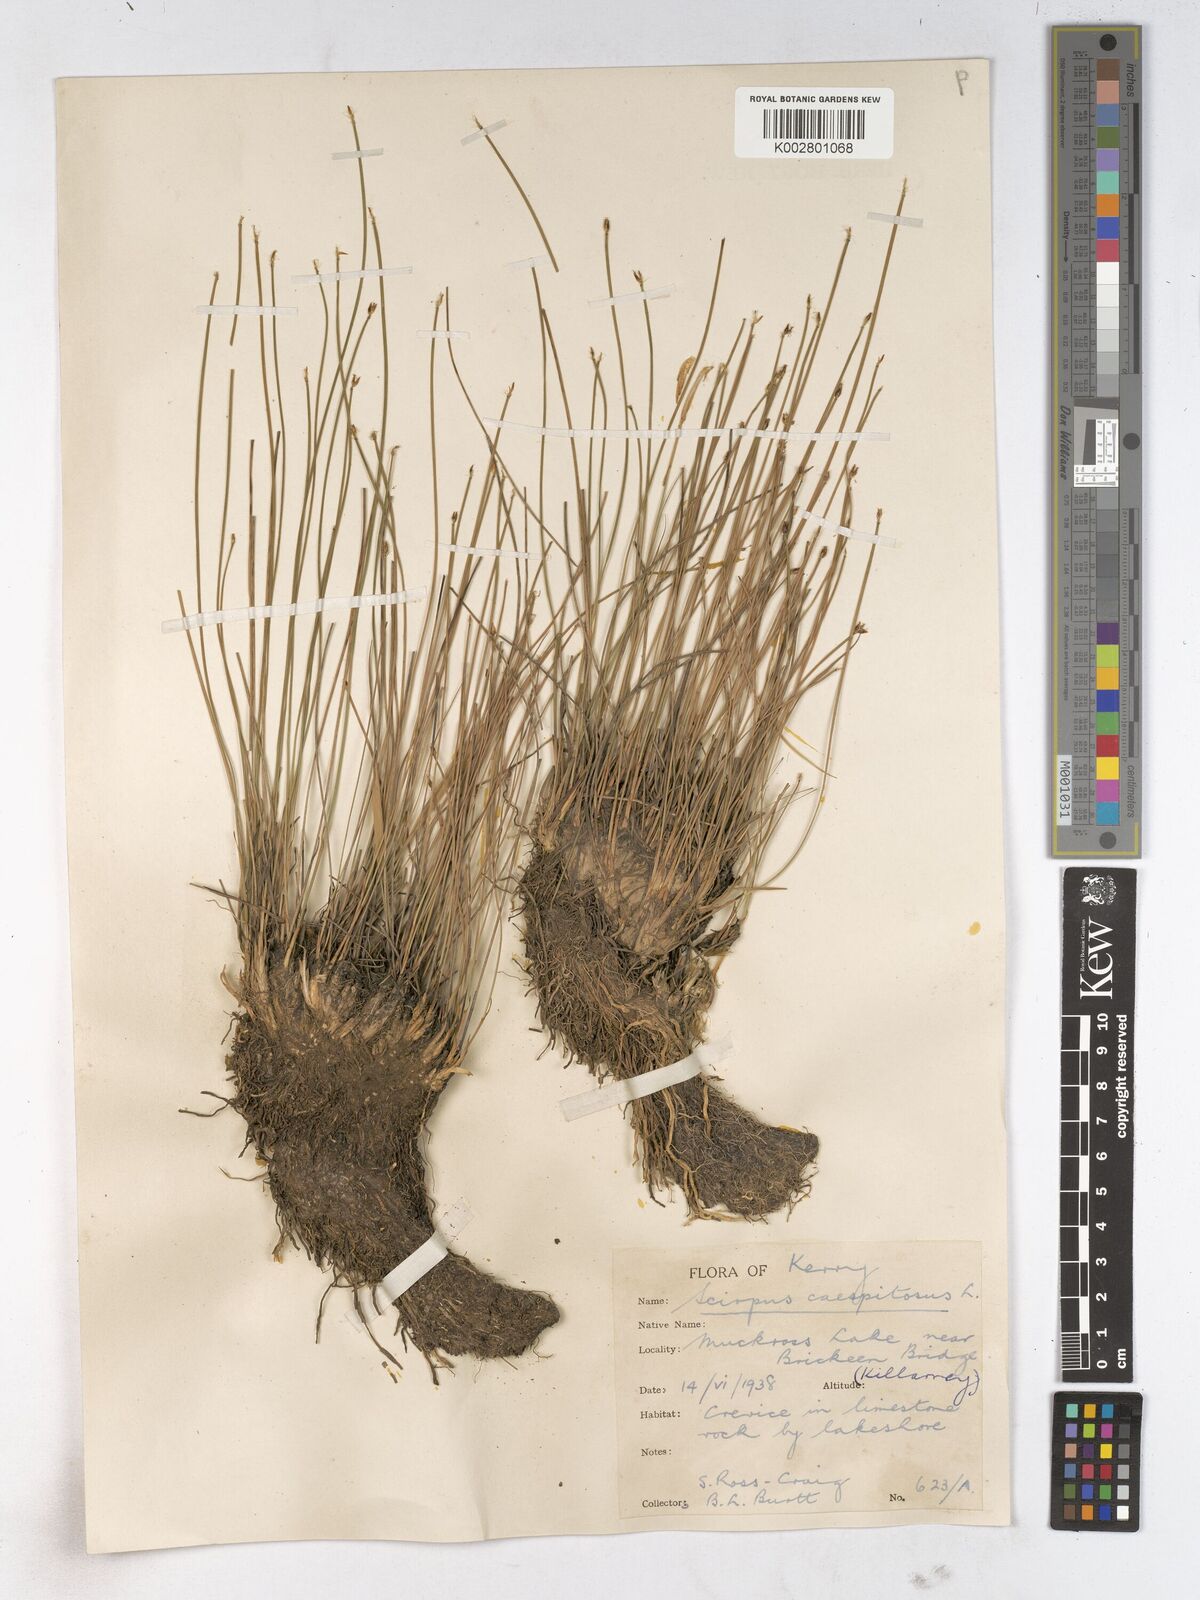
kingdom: Plantae
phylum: Tracheophyta
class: Liliopsida
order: Poales
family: Cyperaceae
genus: Trichophorum
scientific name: Trichophorum cespitosum
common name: Cespitose bulrush
